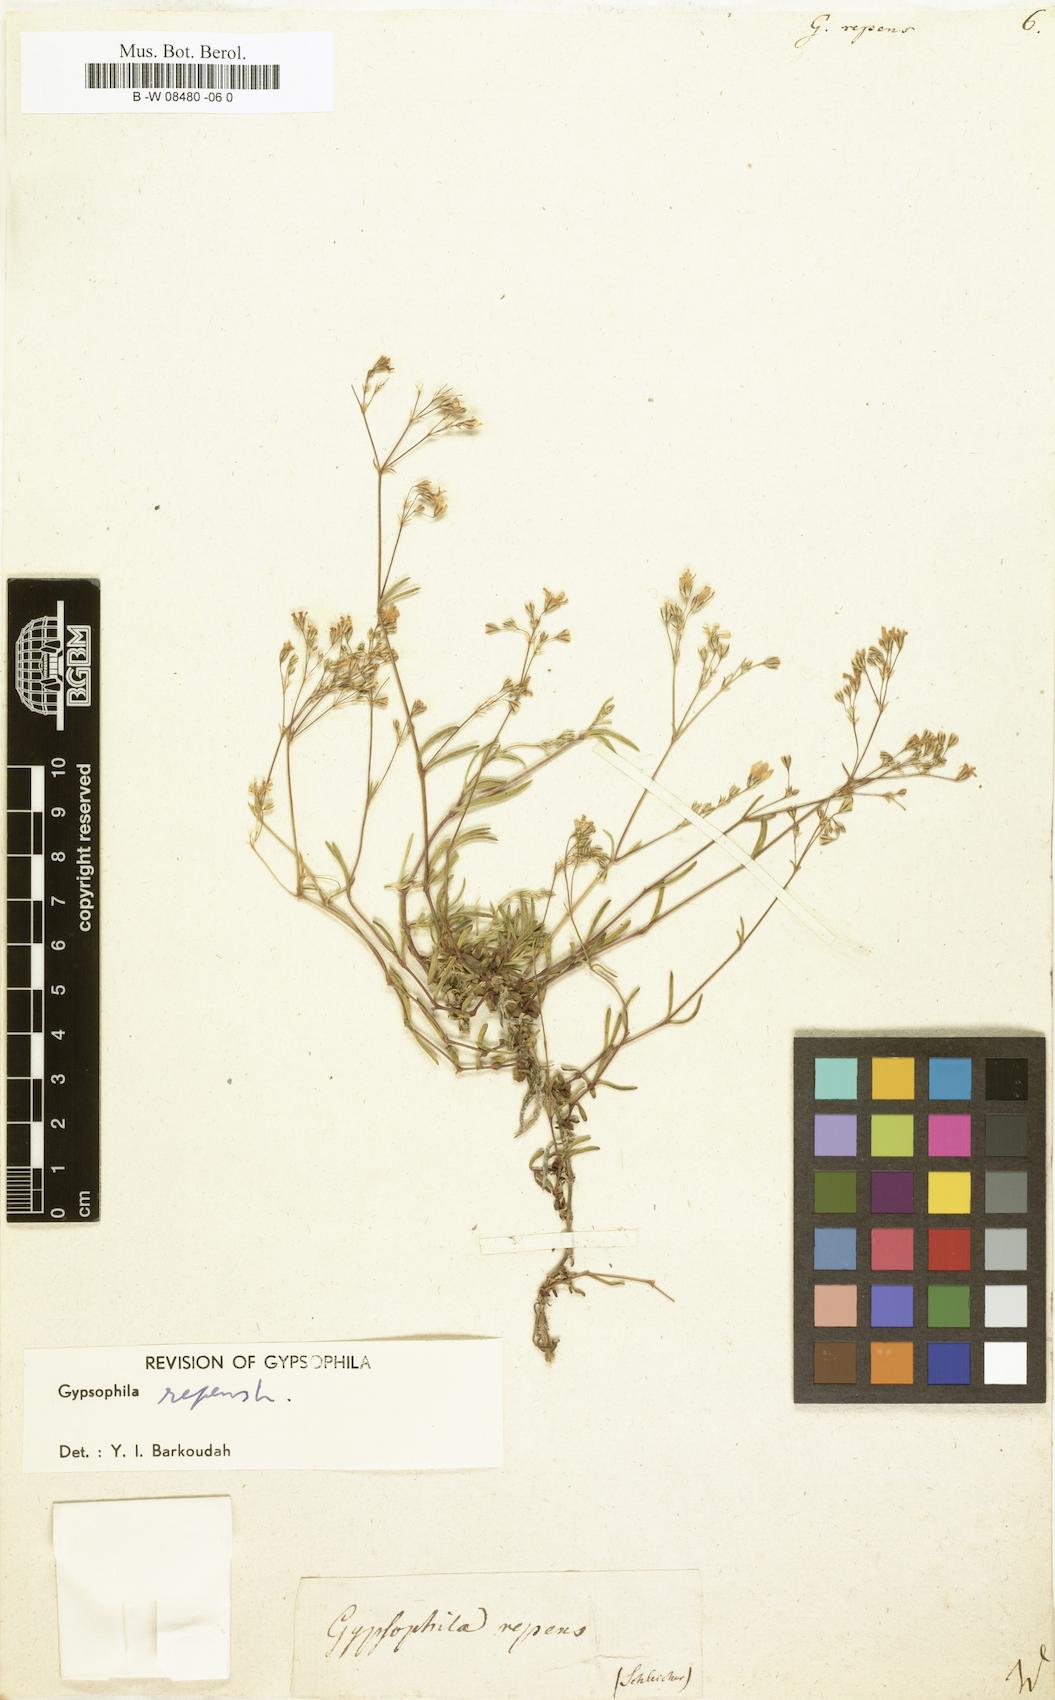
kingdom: Plantae
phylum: Tracheophyta
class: Magnoliopsida
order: Caryophyllales
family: Caryophyllaceae
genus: Gypsophila
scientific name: Gypsophila repens
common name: Creeping baby's-breath
